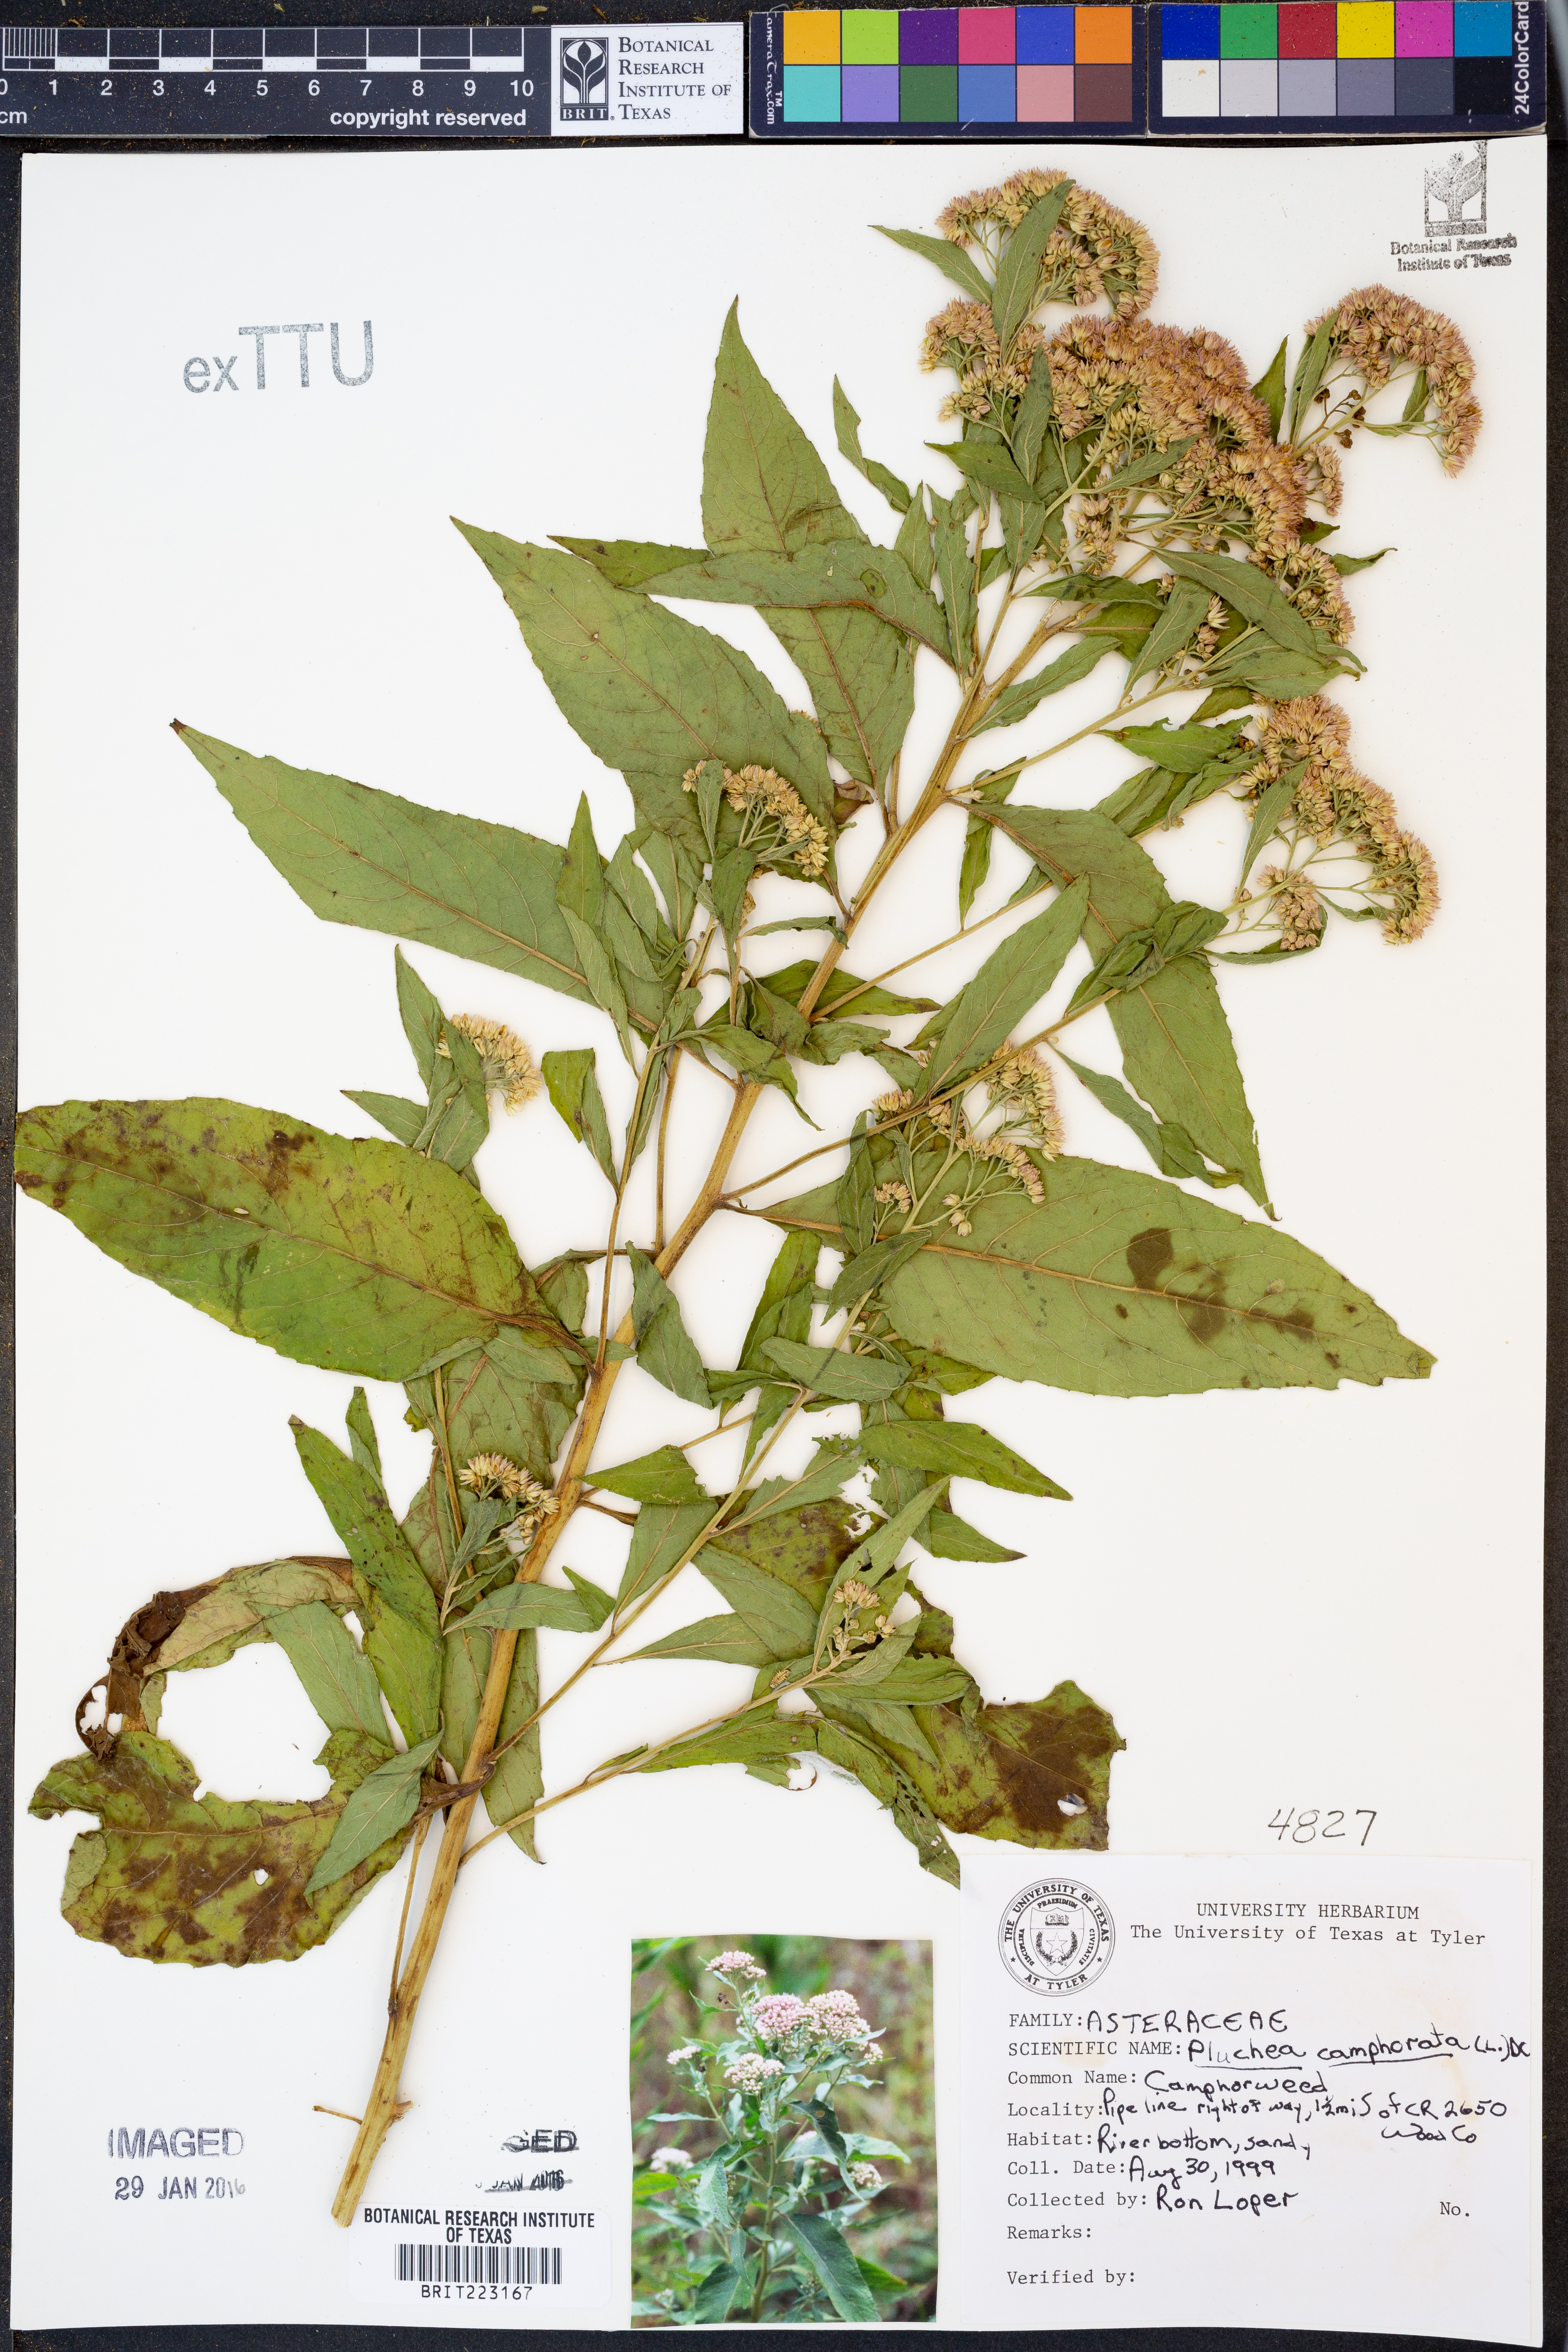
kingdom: Plantae
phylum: Tracheophyta
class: Magnoliopsida
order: Asterales
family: Asteraceae
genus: Pluchea
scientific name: Pluchea camphorata
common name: Camphor pluchea
